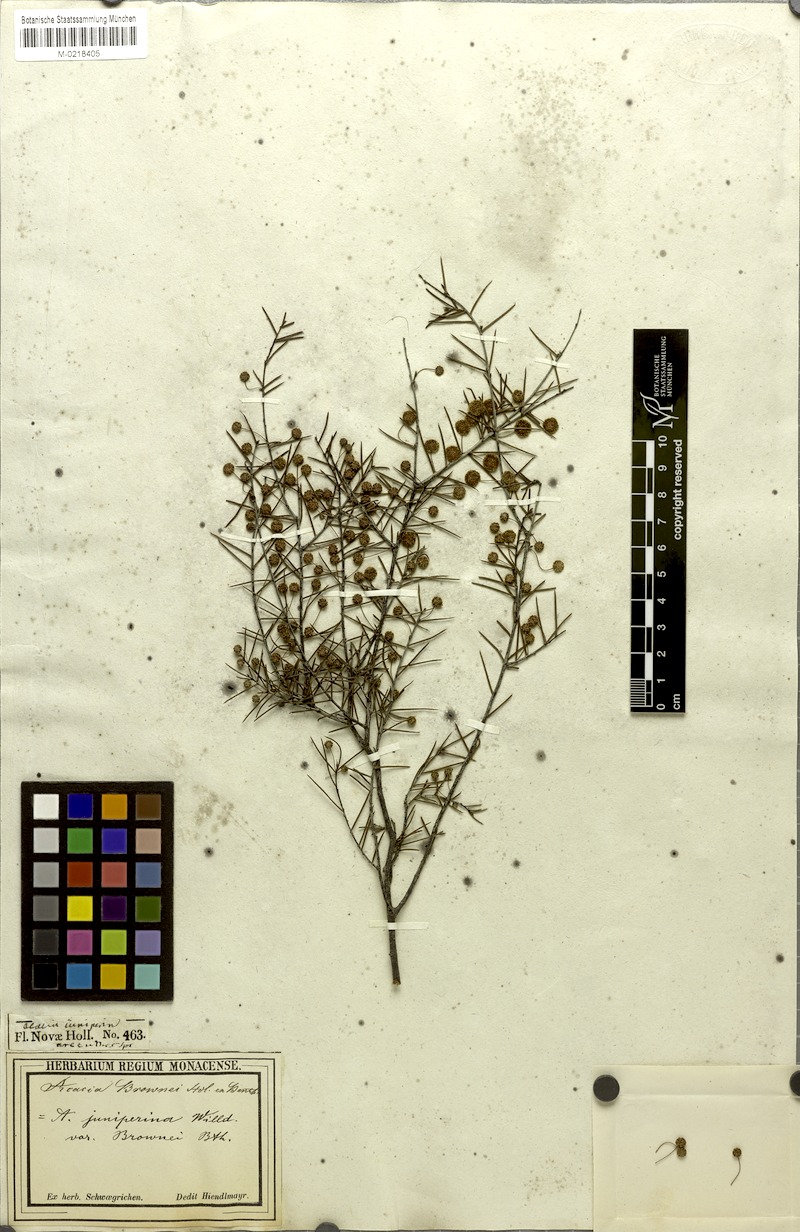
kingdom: Plantae
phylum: Tracheophyta
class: Magnoliopsida
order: Fabales
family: Fabaceae
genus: Acacia
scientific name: Acacia brownii
